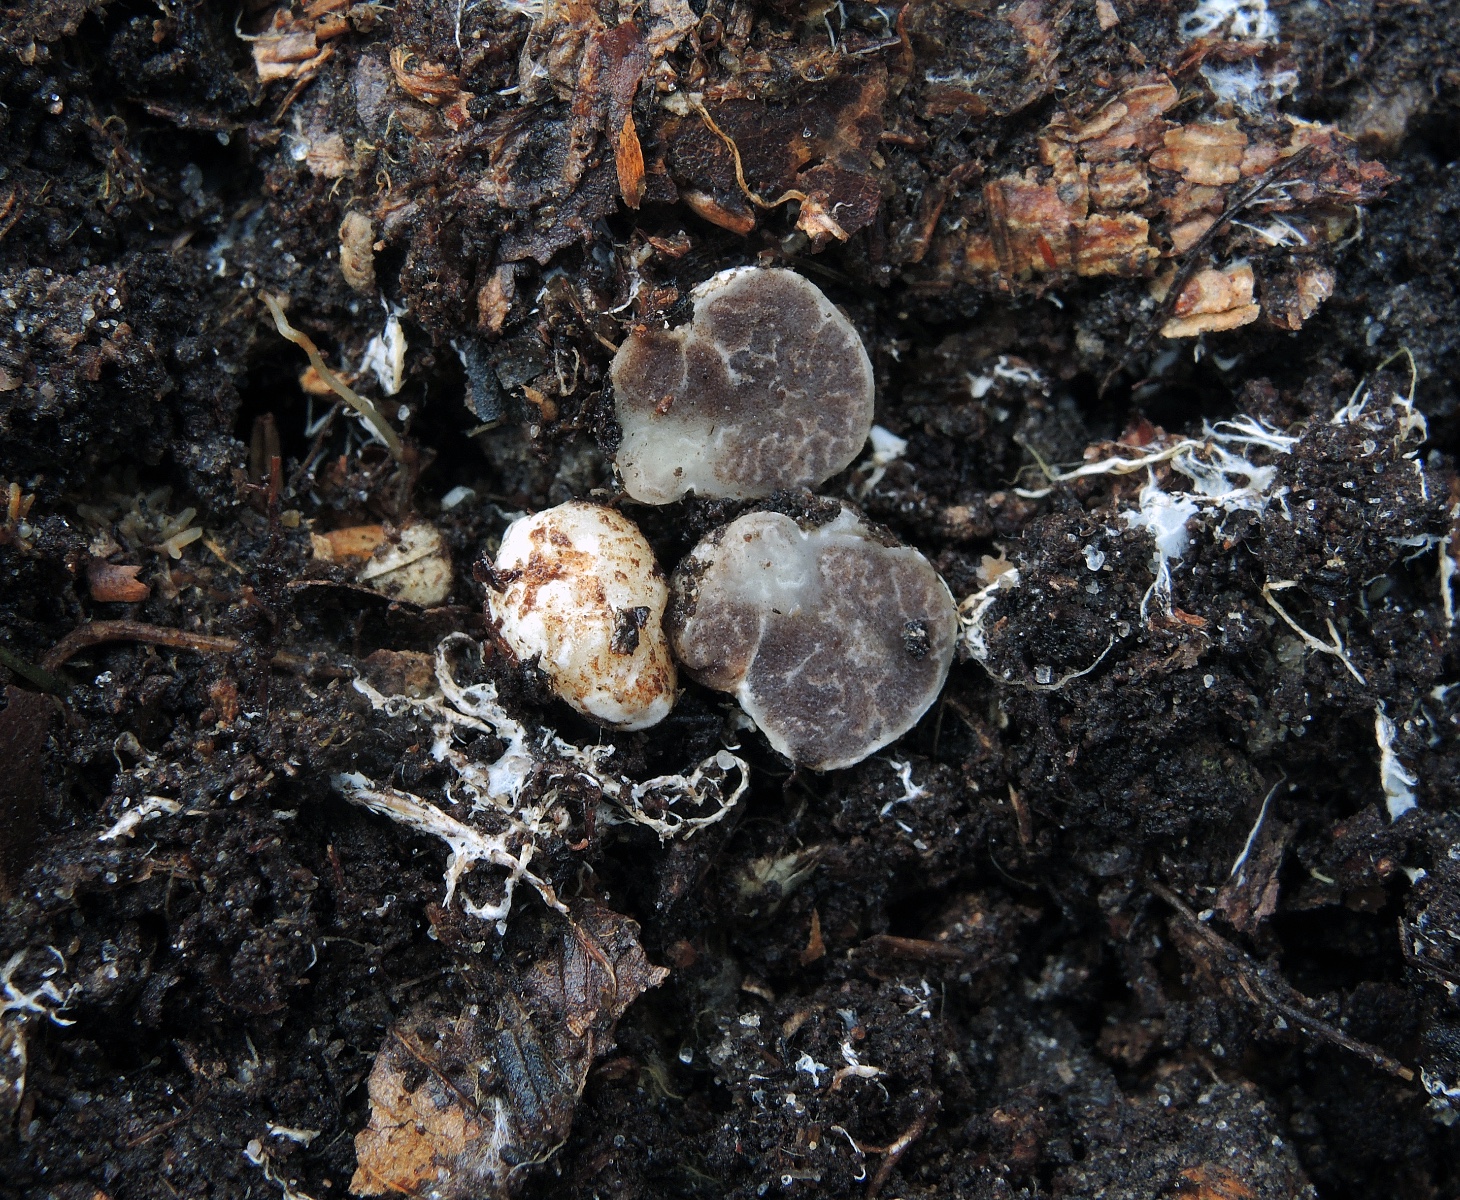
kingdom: Fungi
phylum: Ascomycota
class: Pezizomycetes
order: Pezizales
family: Tuberaceae
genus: Tuber
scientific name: Tuber anniae
